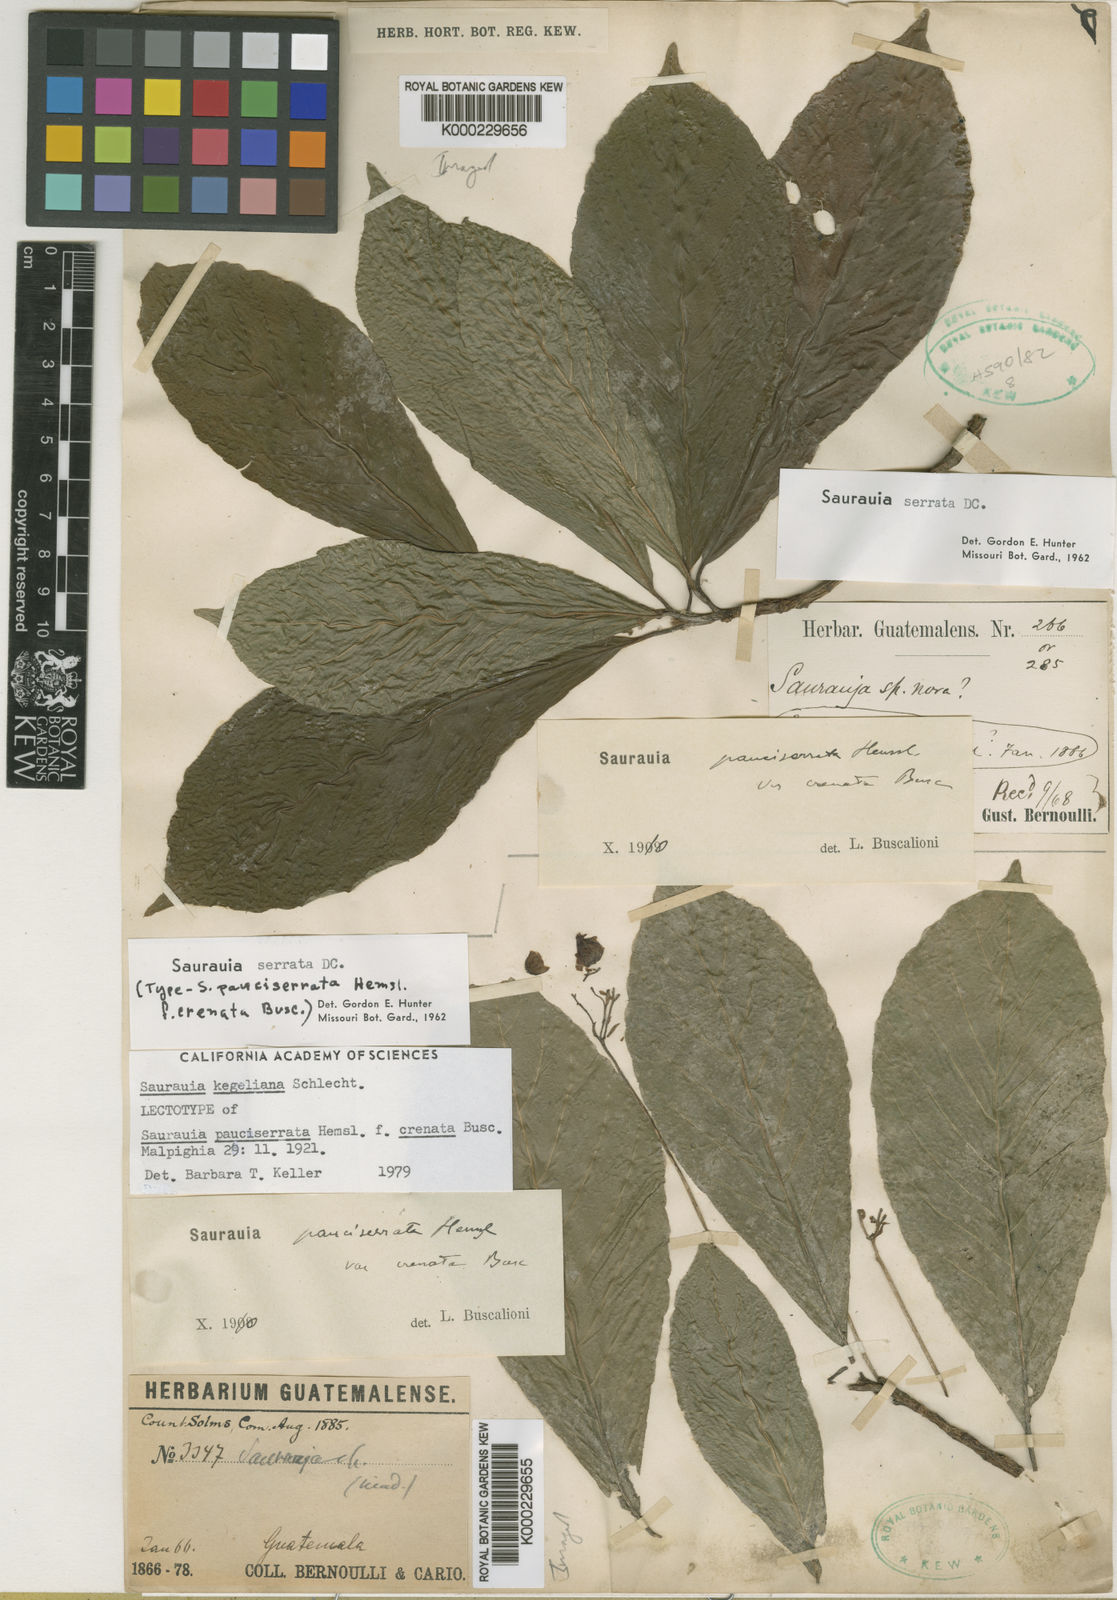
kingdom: Plantae
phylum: Tracheophyta
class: Magnoliopsida
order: Ericales
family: Actinidiaceae
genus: Saurauia
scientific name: Saurauia kegeliana
